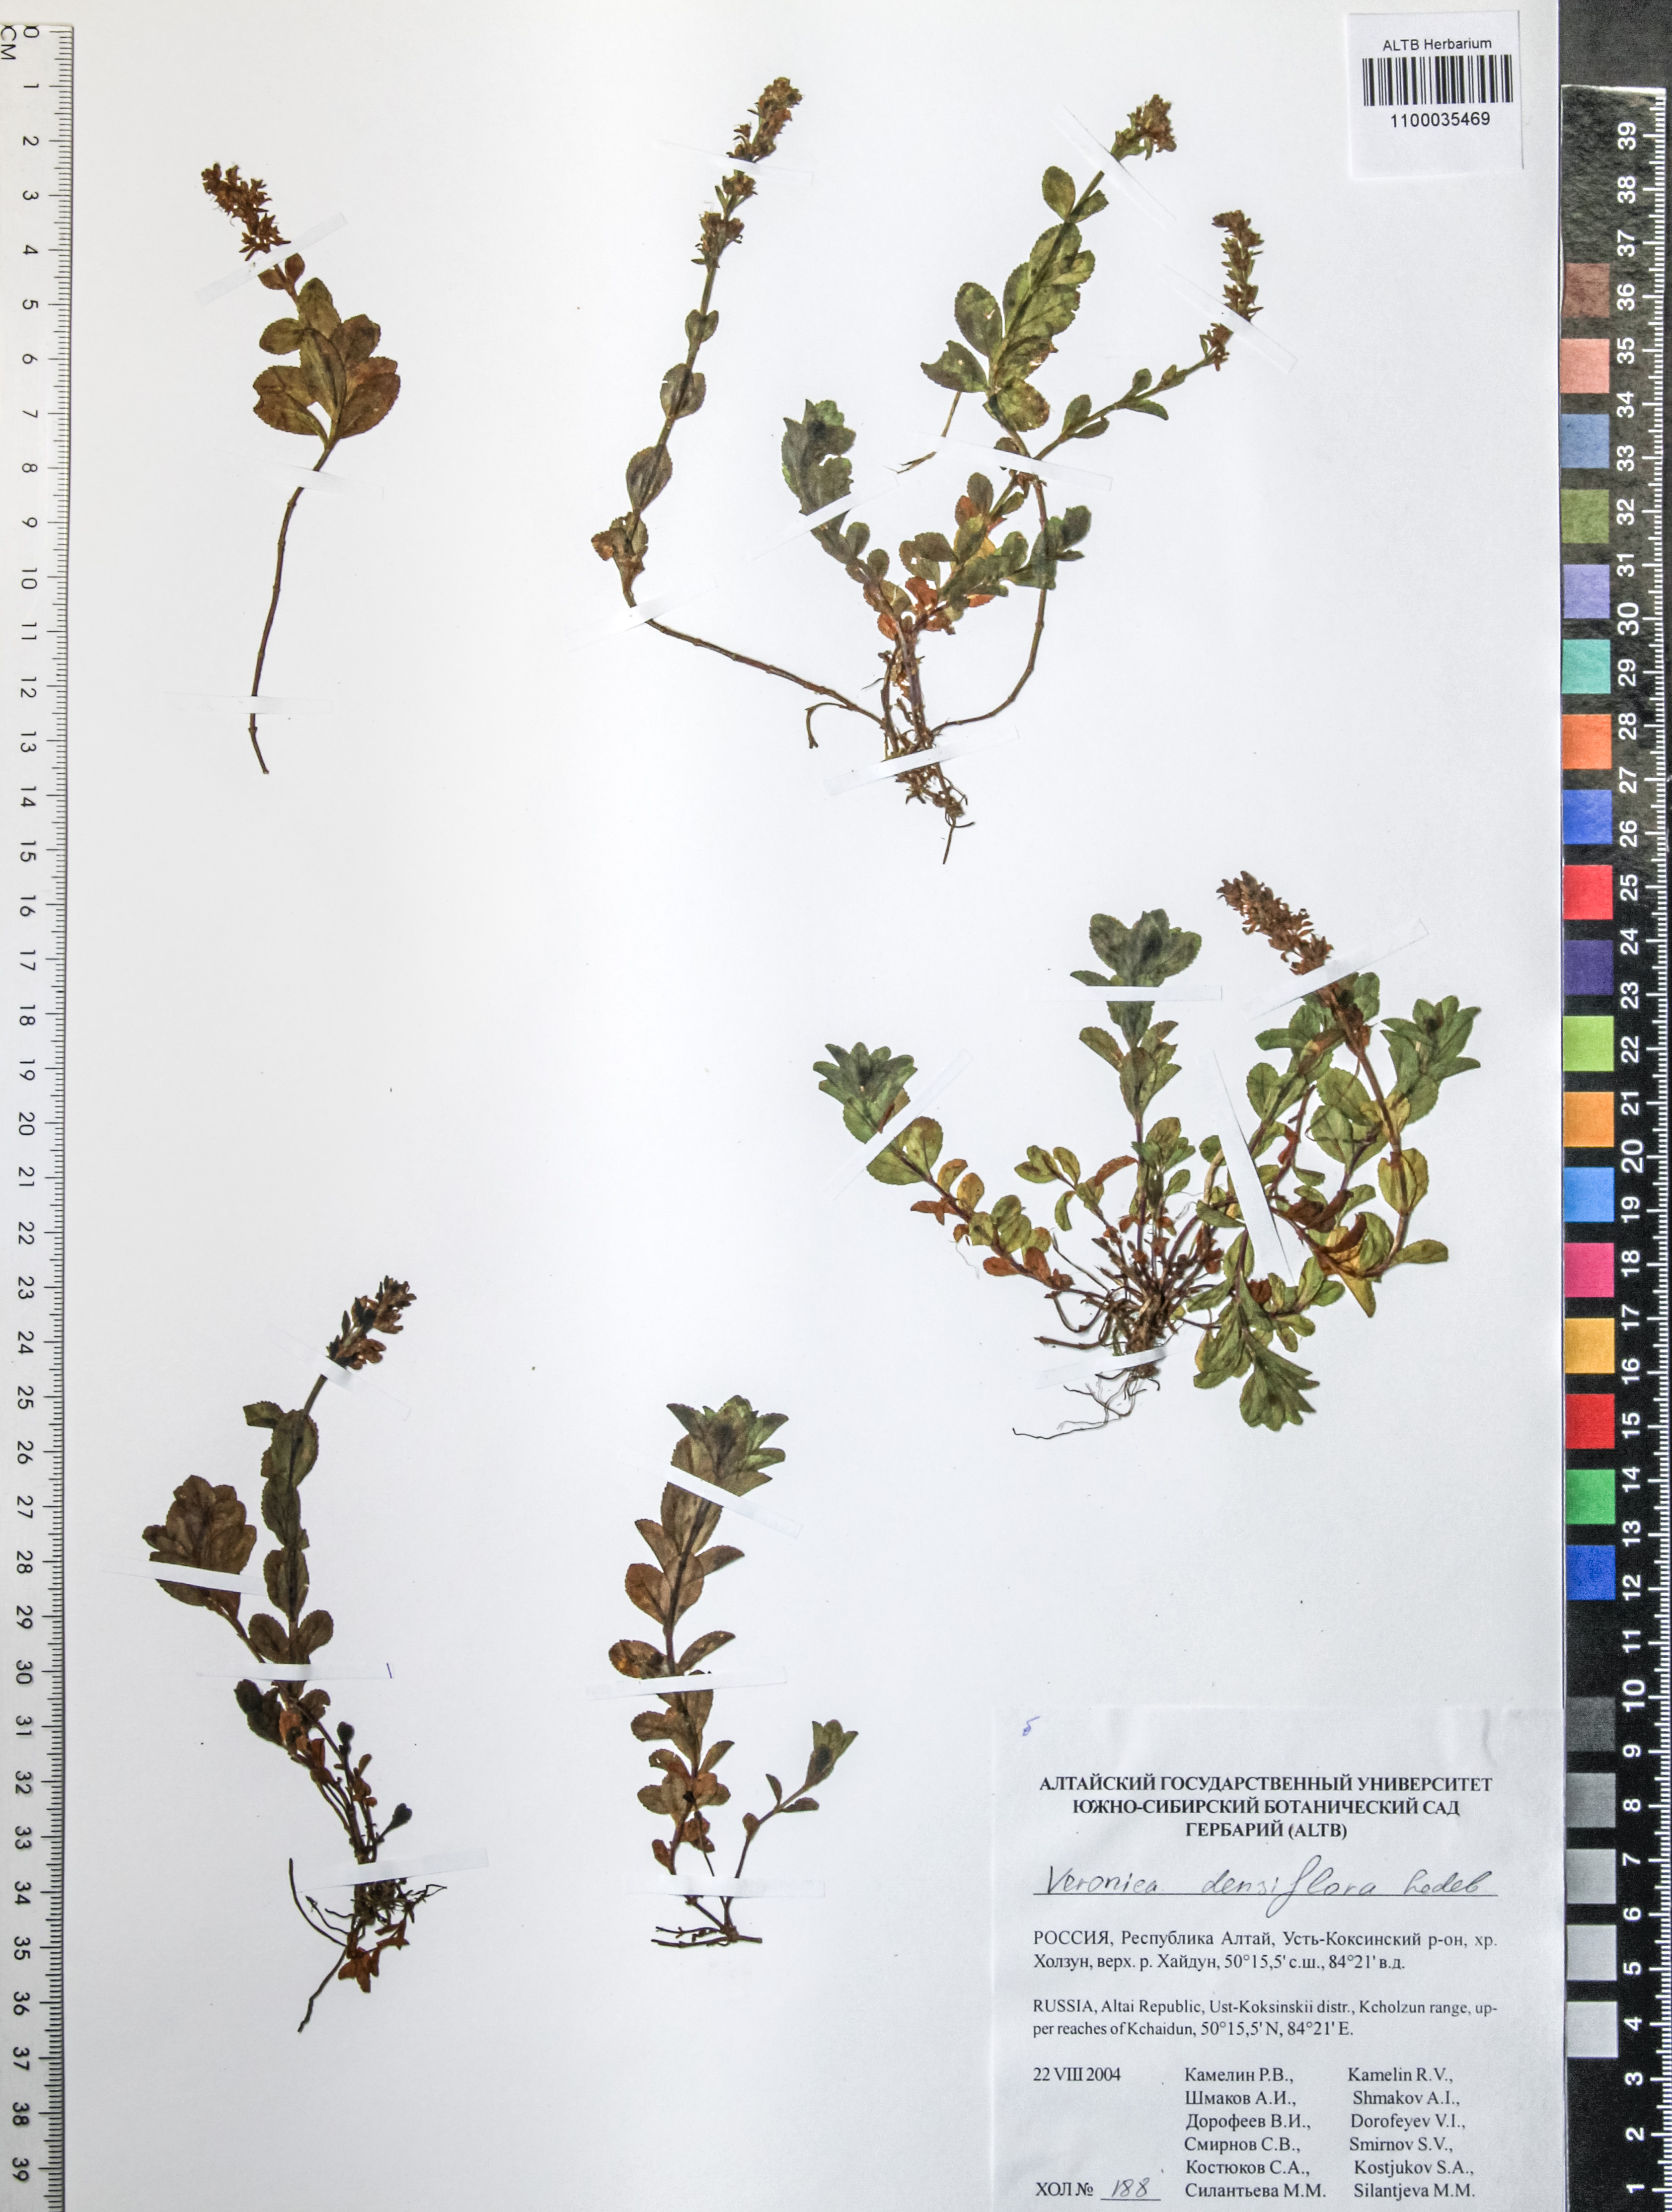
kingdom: Plantae
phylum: Tracheophyta
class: Magnoliopsida
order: Lamiales
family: Plantaginaceae
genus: Veronica
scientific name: Veronica densiflora
